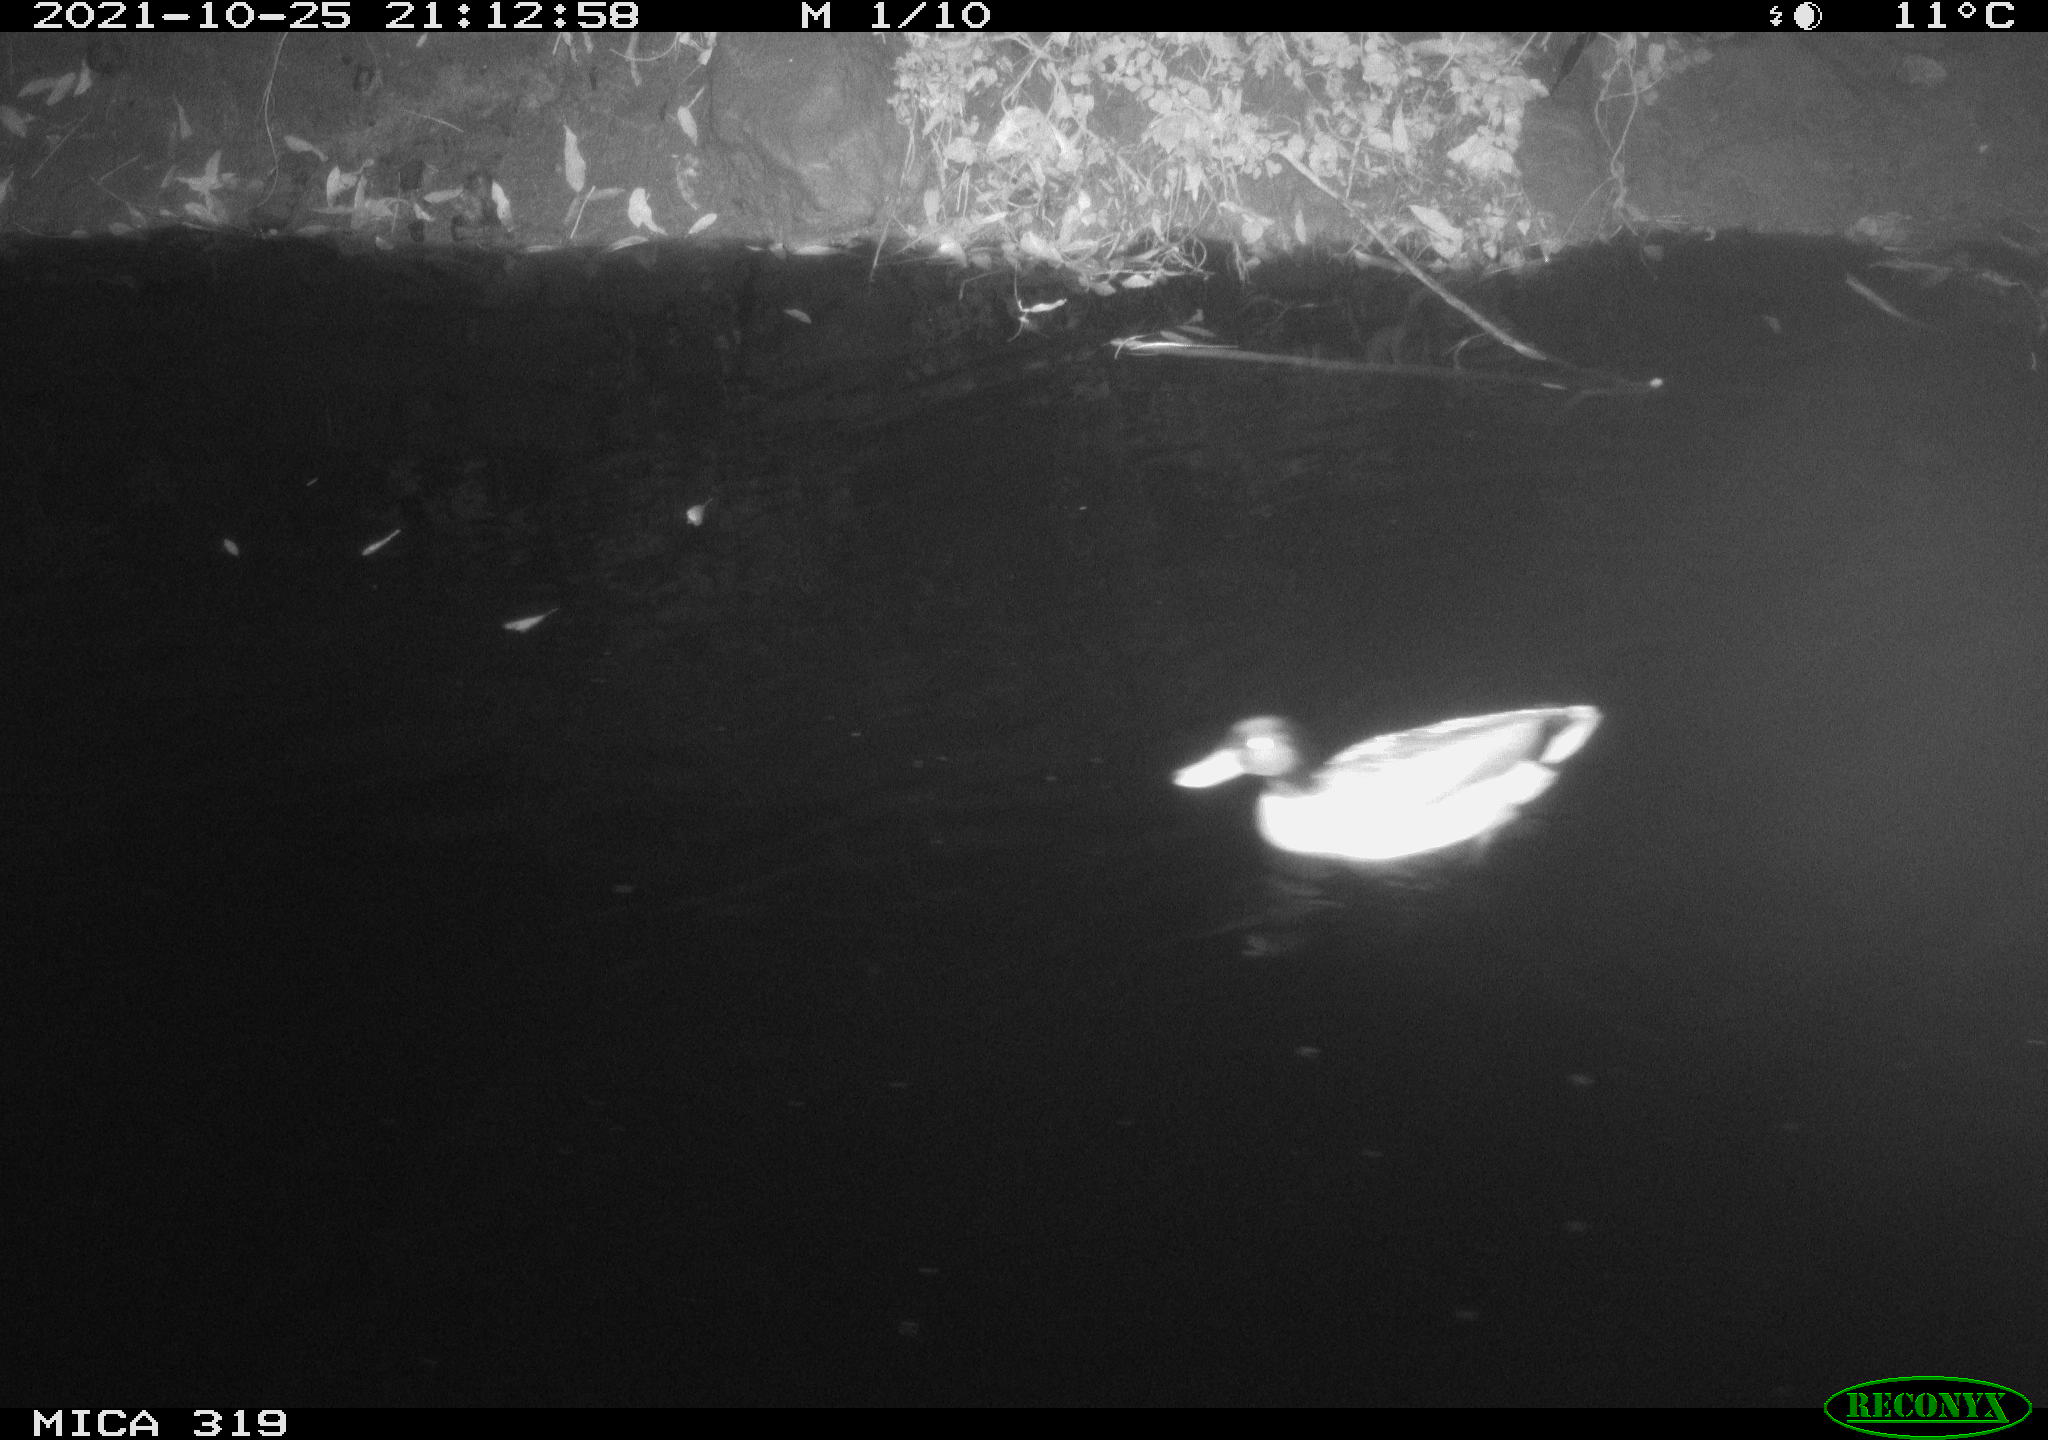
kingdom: Animalia
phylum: Chordata
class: Aves
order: Anseriformes
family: Anatidae
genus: Anas
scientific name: Anas platyrhynchos
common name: Mallard
